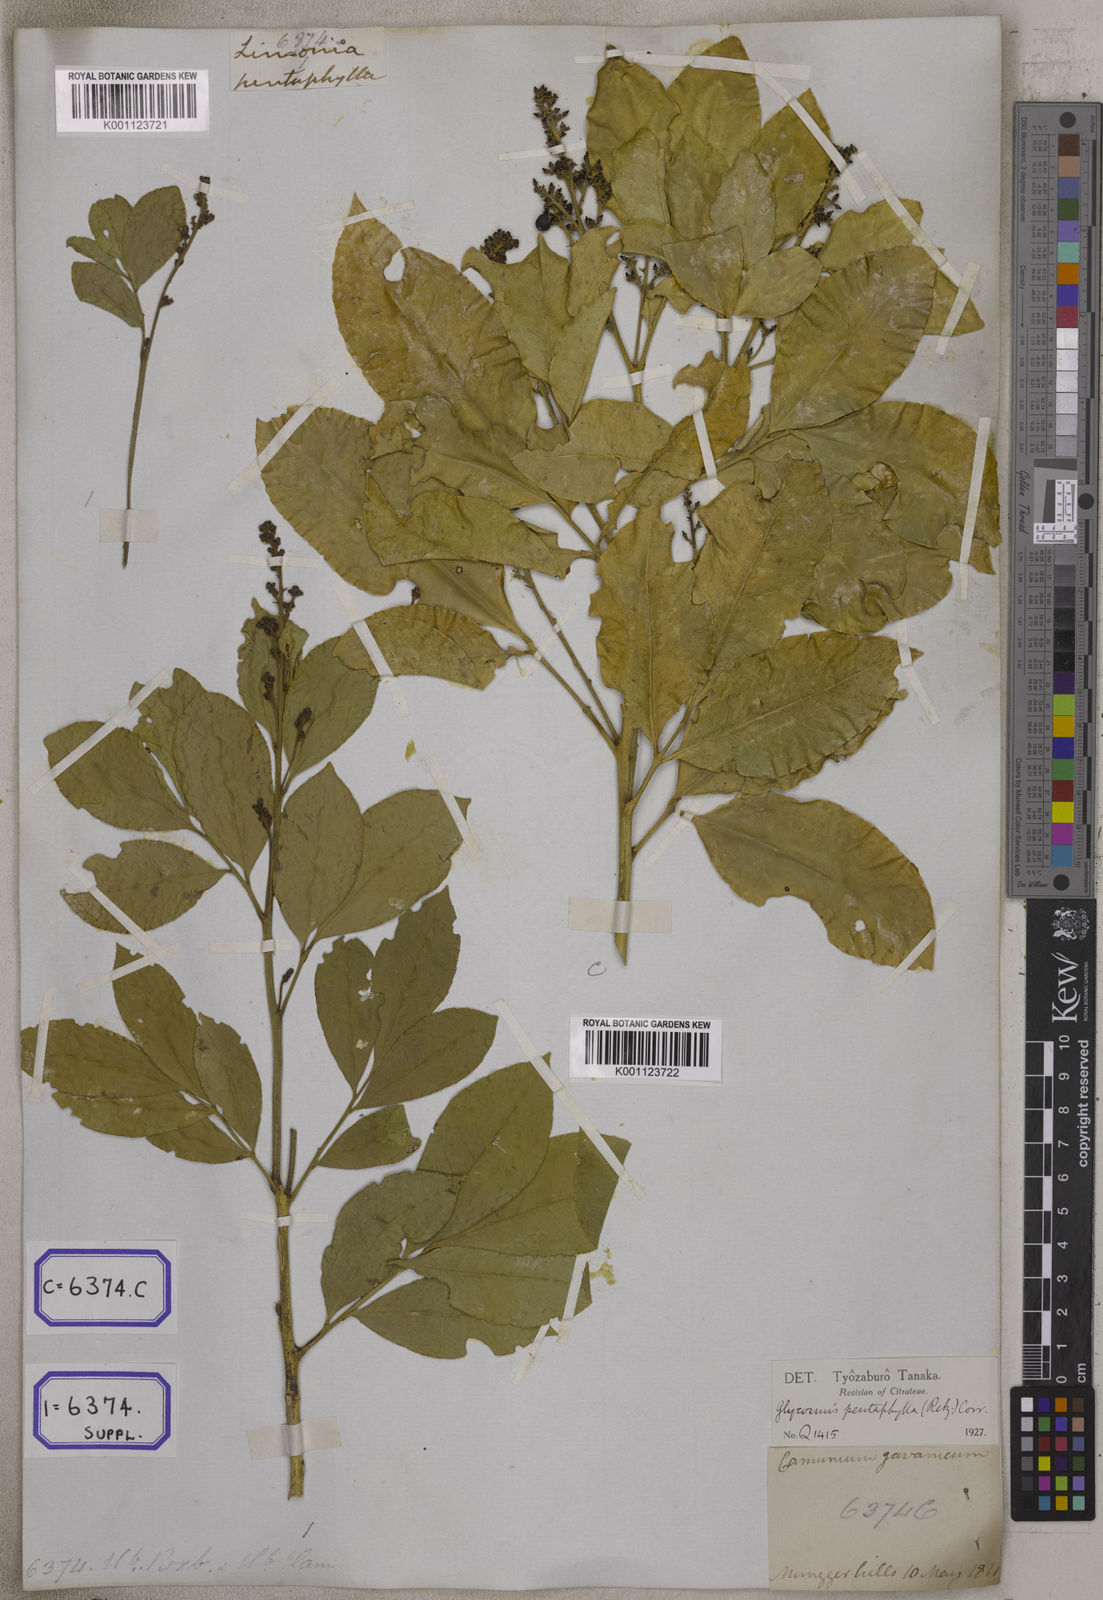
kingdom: Plantae
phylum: Tracheophyta
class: Magnoliopsida
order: Sapindales
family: Rutaceae
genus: Glycosmis
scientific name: Glycosmis pentaphylla
